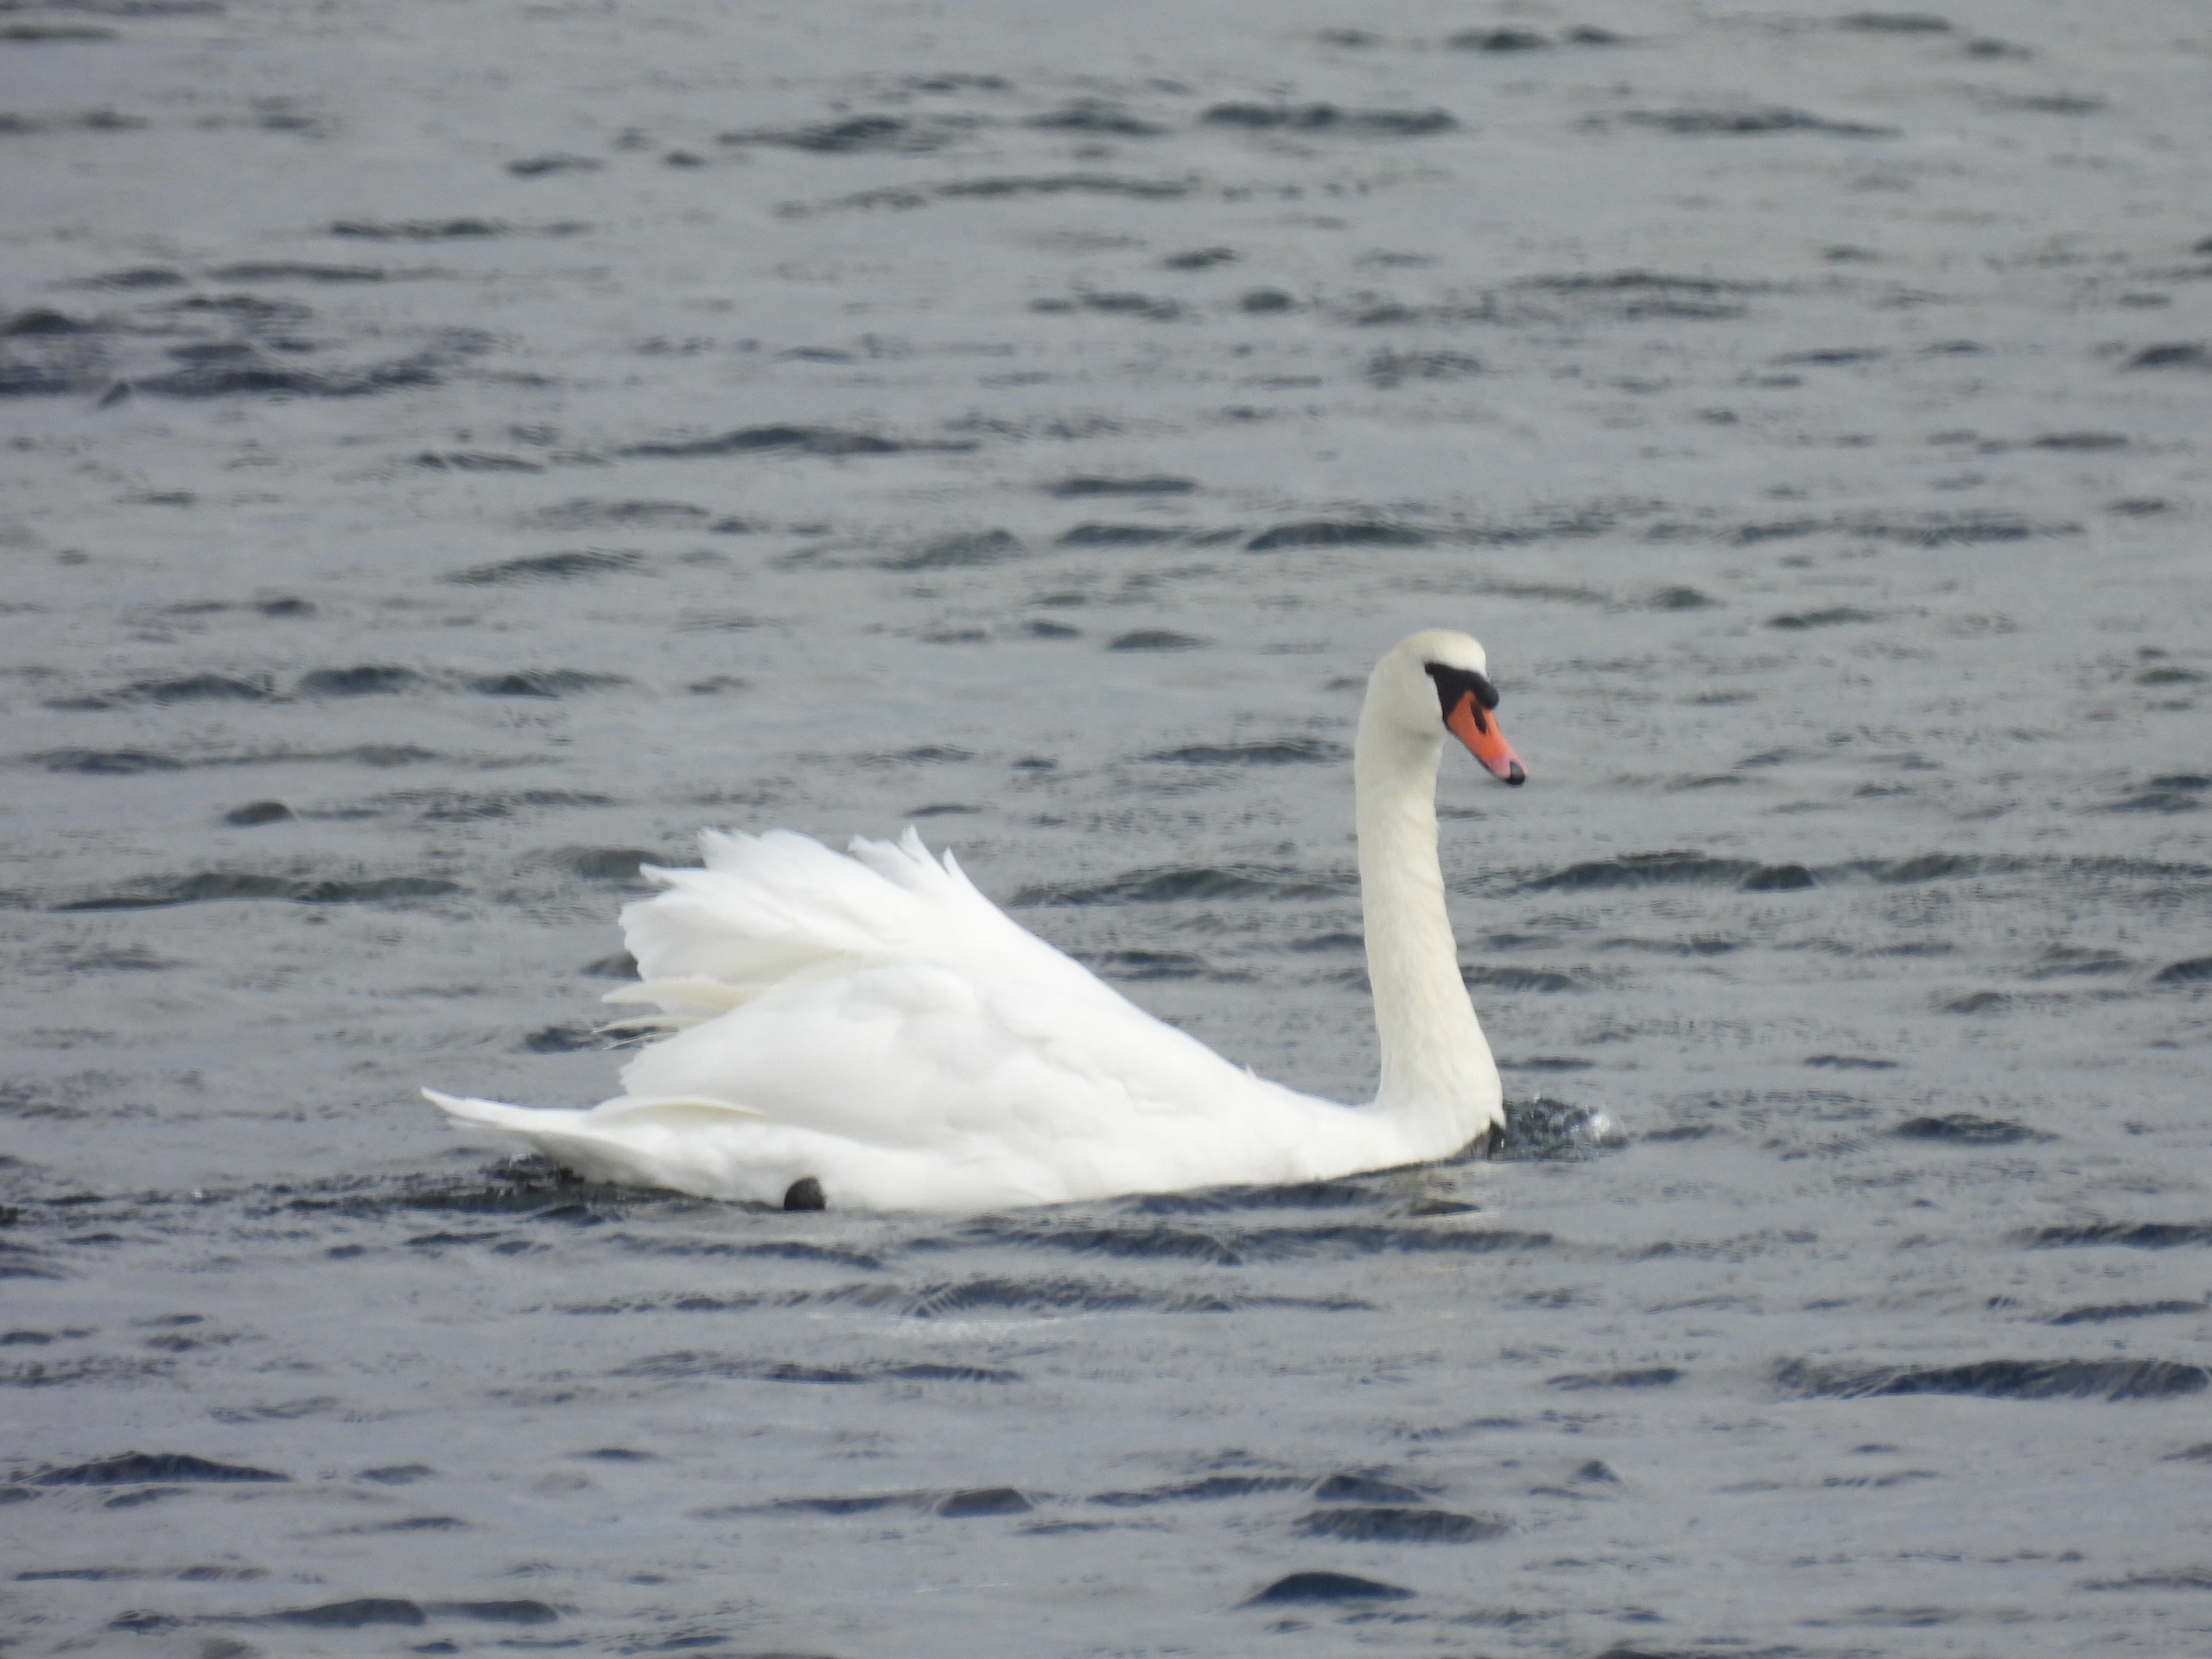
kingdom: Animalia
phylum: Chordata
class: Aves
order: Anseriformes
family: Anatidae
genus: Cygnus
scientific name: Cygnus olor
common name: Knopsvane
